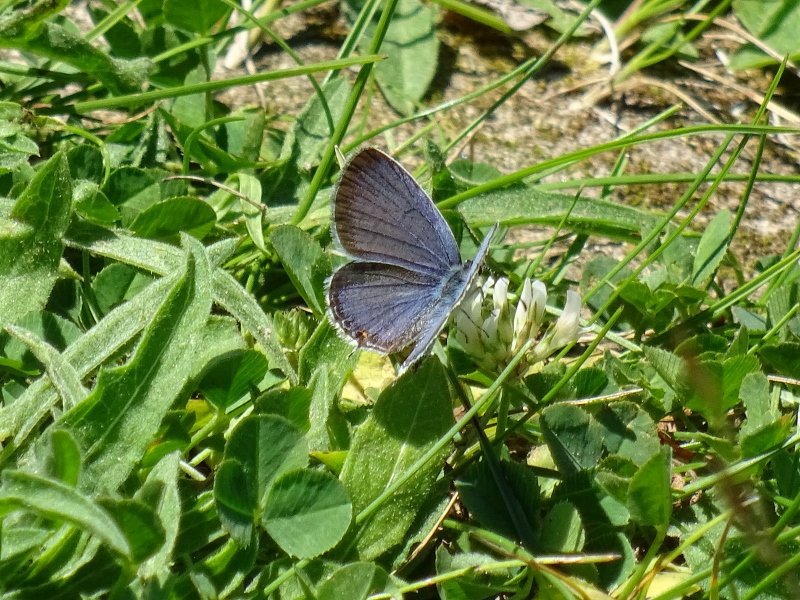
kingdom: Animalia
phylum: Arthropoda
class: Insecta
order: Lepidoptera
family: Lycaenidae
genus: Elkalyce
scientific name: Elkalyce comyntas
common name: Eastern Tailed-Blue
